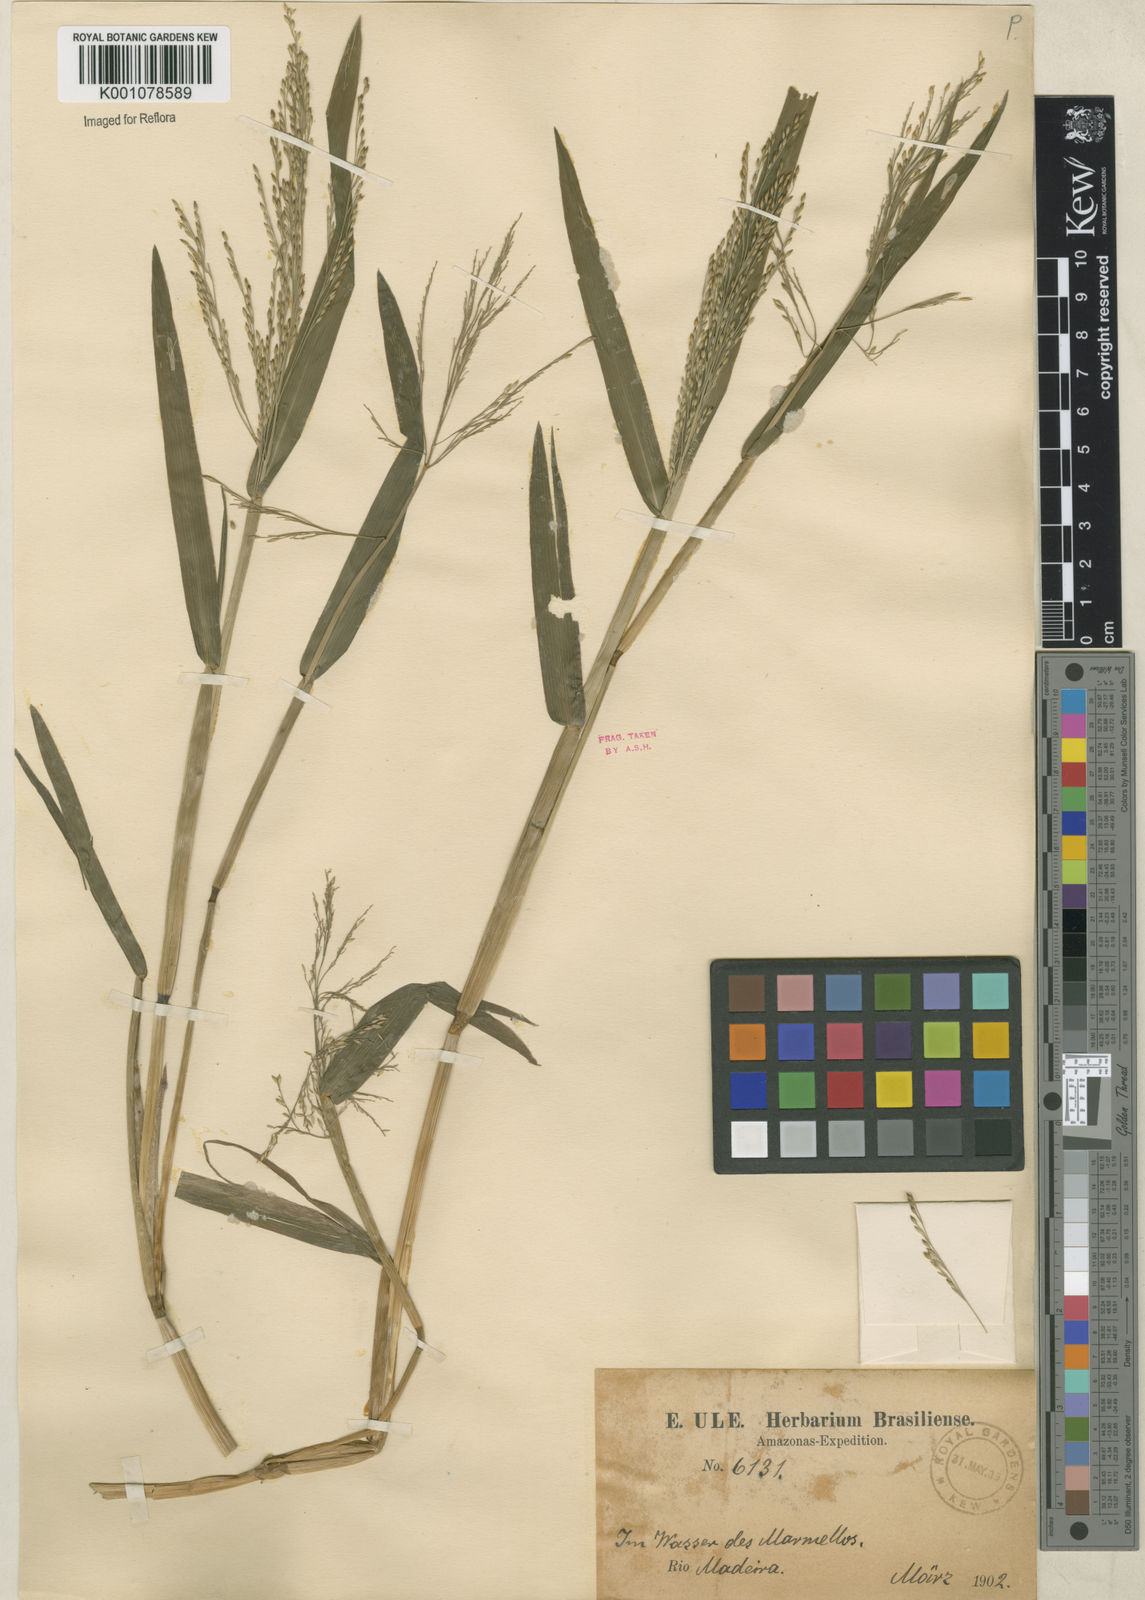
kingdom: Plantae
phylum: Tracheophyta
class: Liliopsida
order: Poales
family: Poaceae
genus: Panicum
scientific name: Panicum dichotomiflorum
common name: Autumn millet
